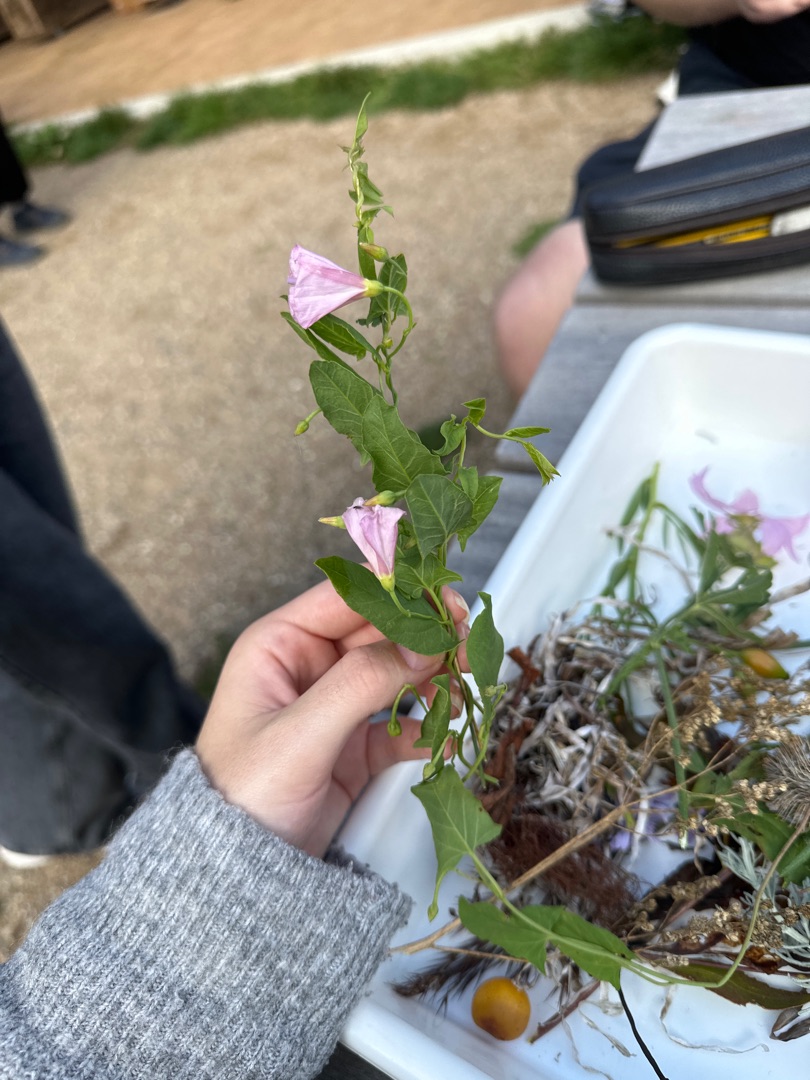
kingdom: Plantae
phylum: Tracheophyta
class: Magnoliopsida
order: Solanales
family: Convolvulaceae
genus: Convolvulus
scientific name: Convolvulus arvensis
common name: Ager-snerle
